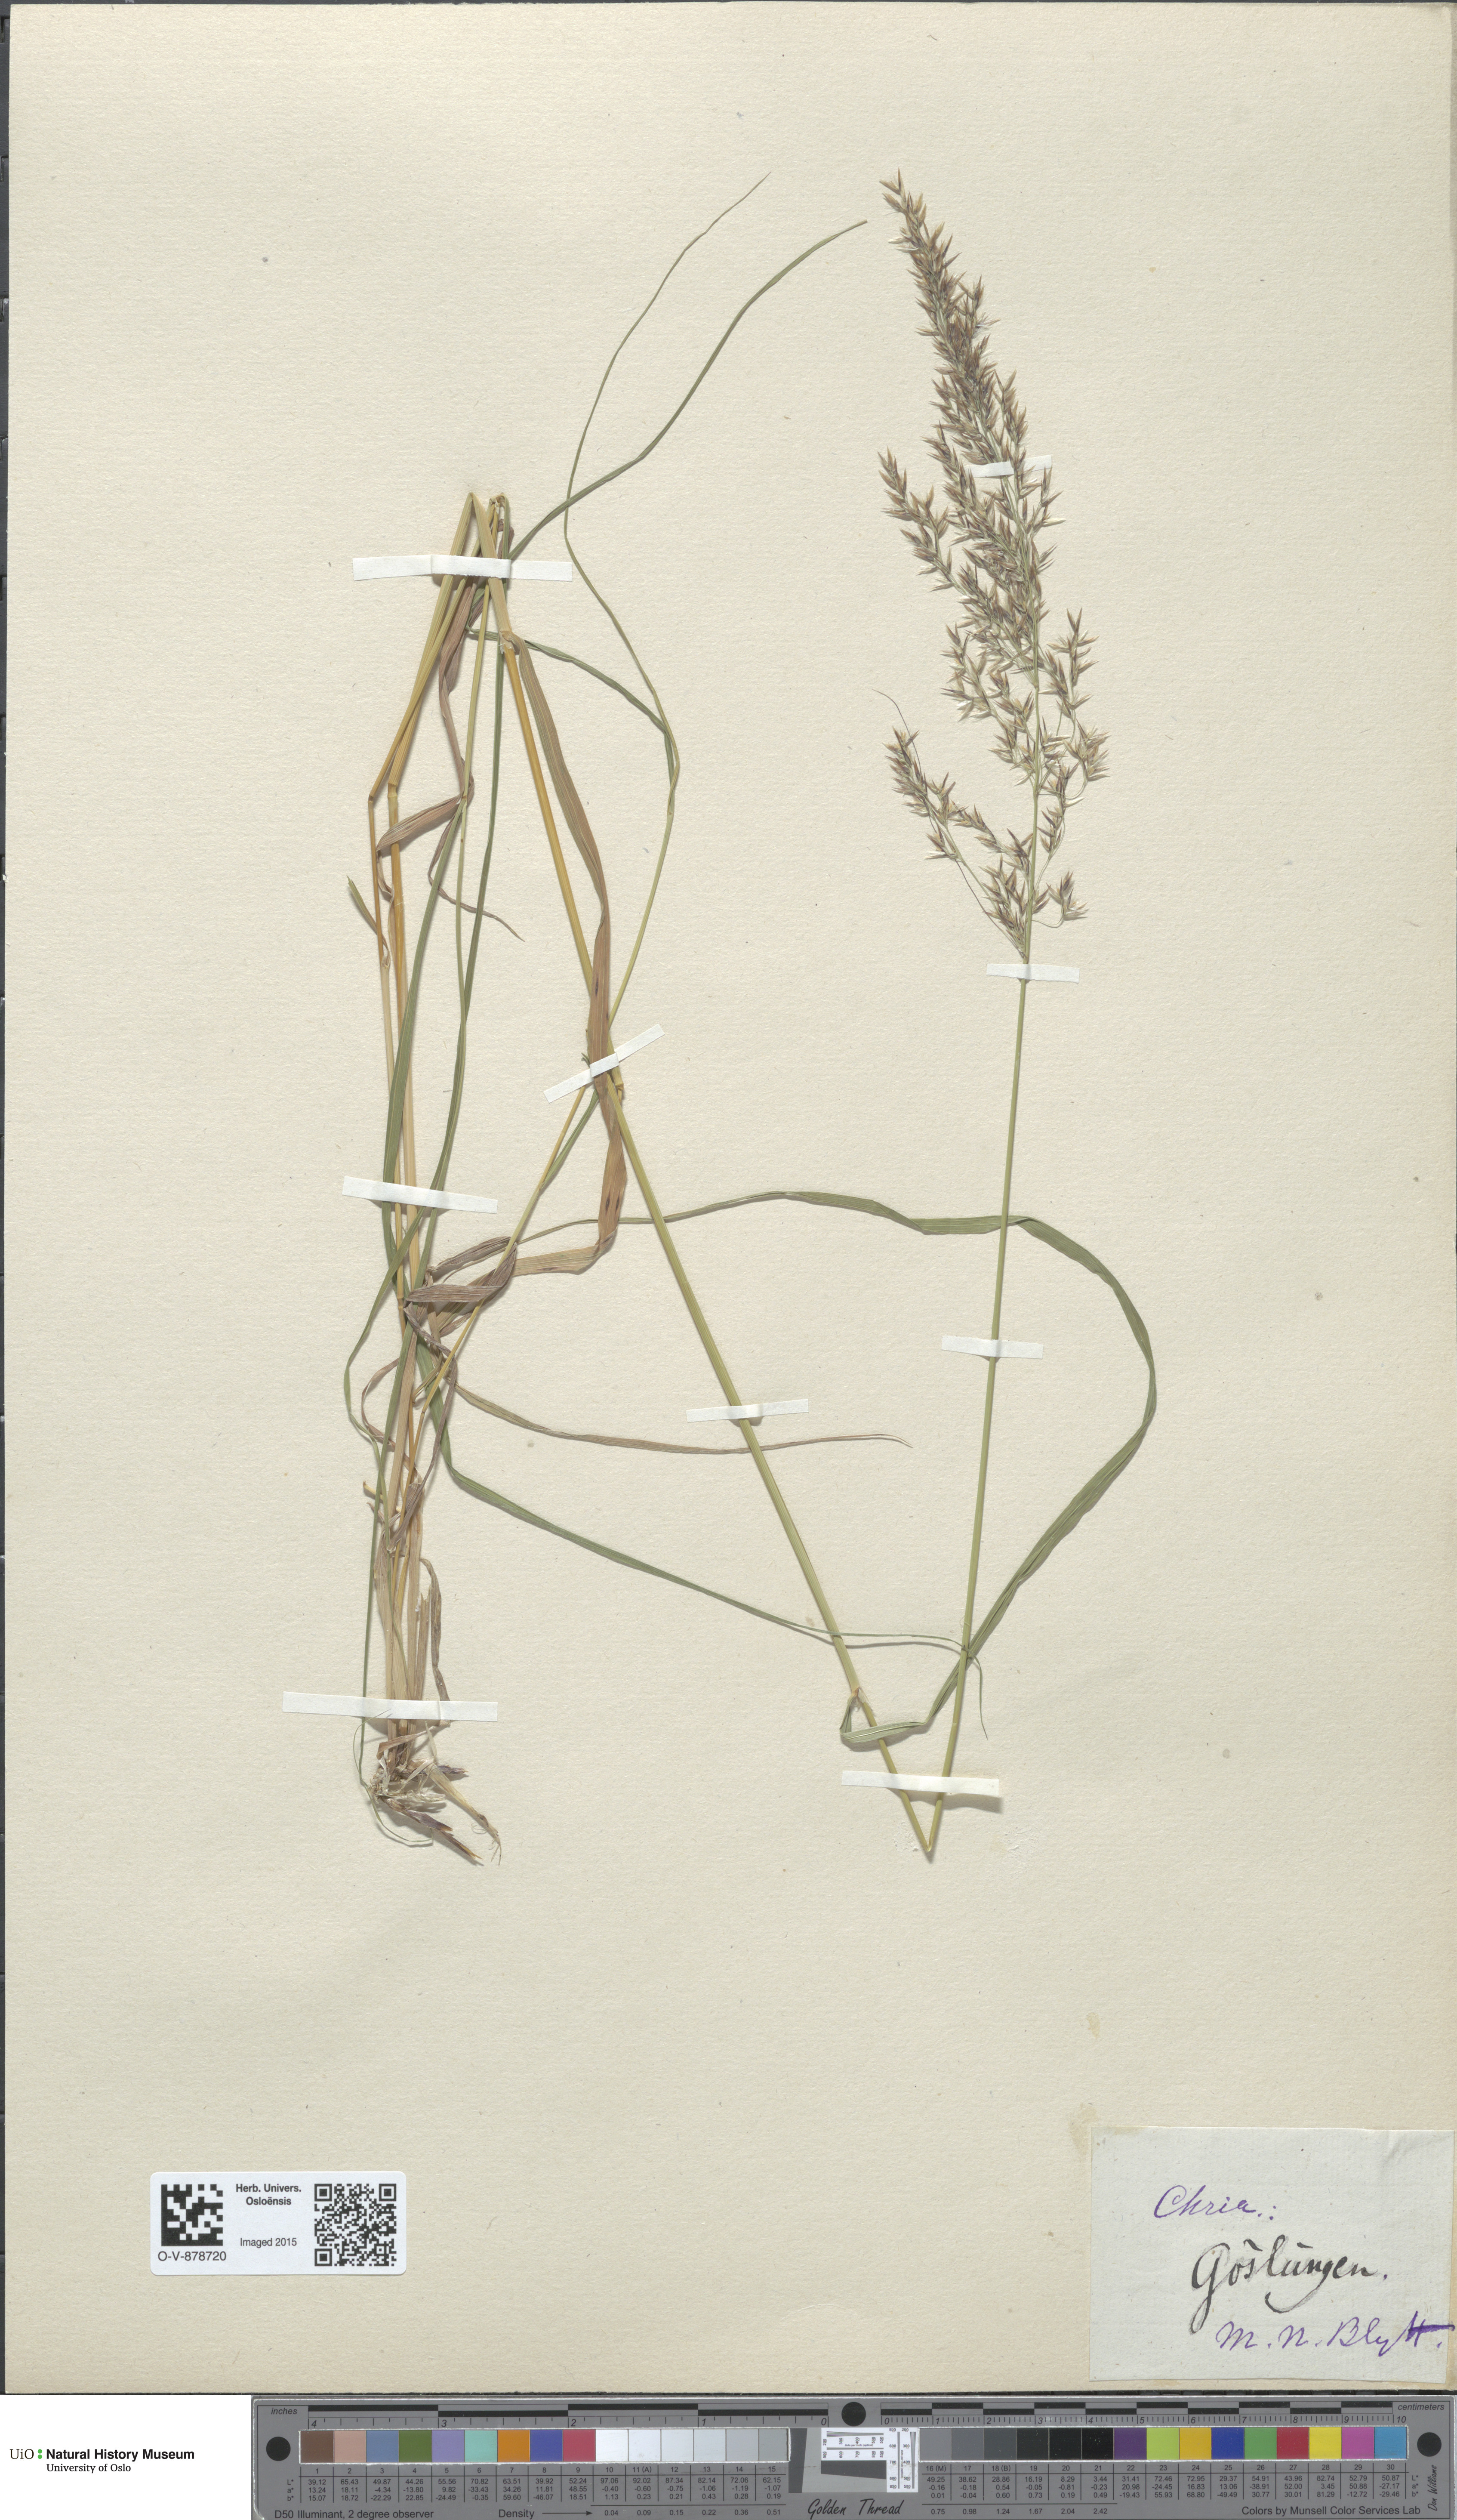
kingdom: Plantae
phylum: Tracheophyta
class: Liliopsida
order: Poales
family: Poaceae
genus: Calamagrostis
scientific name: Calamagrostis purpurea
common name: Scandinavian small-reed
